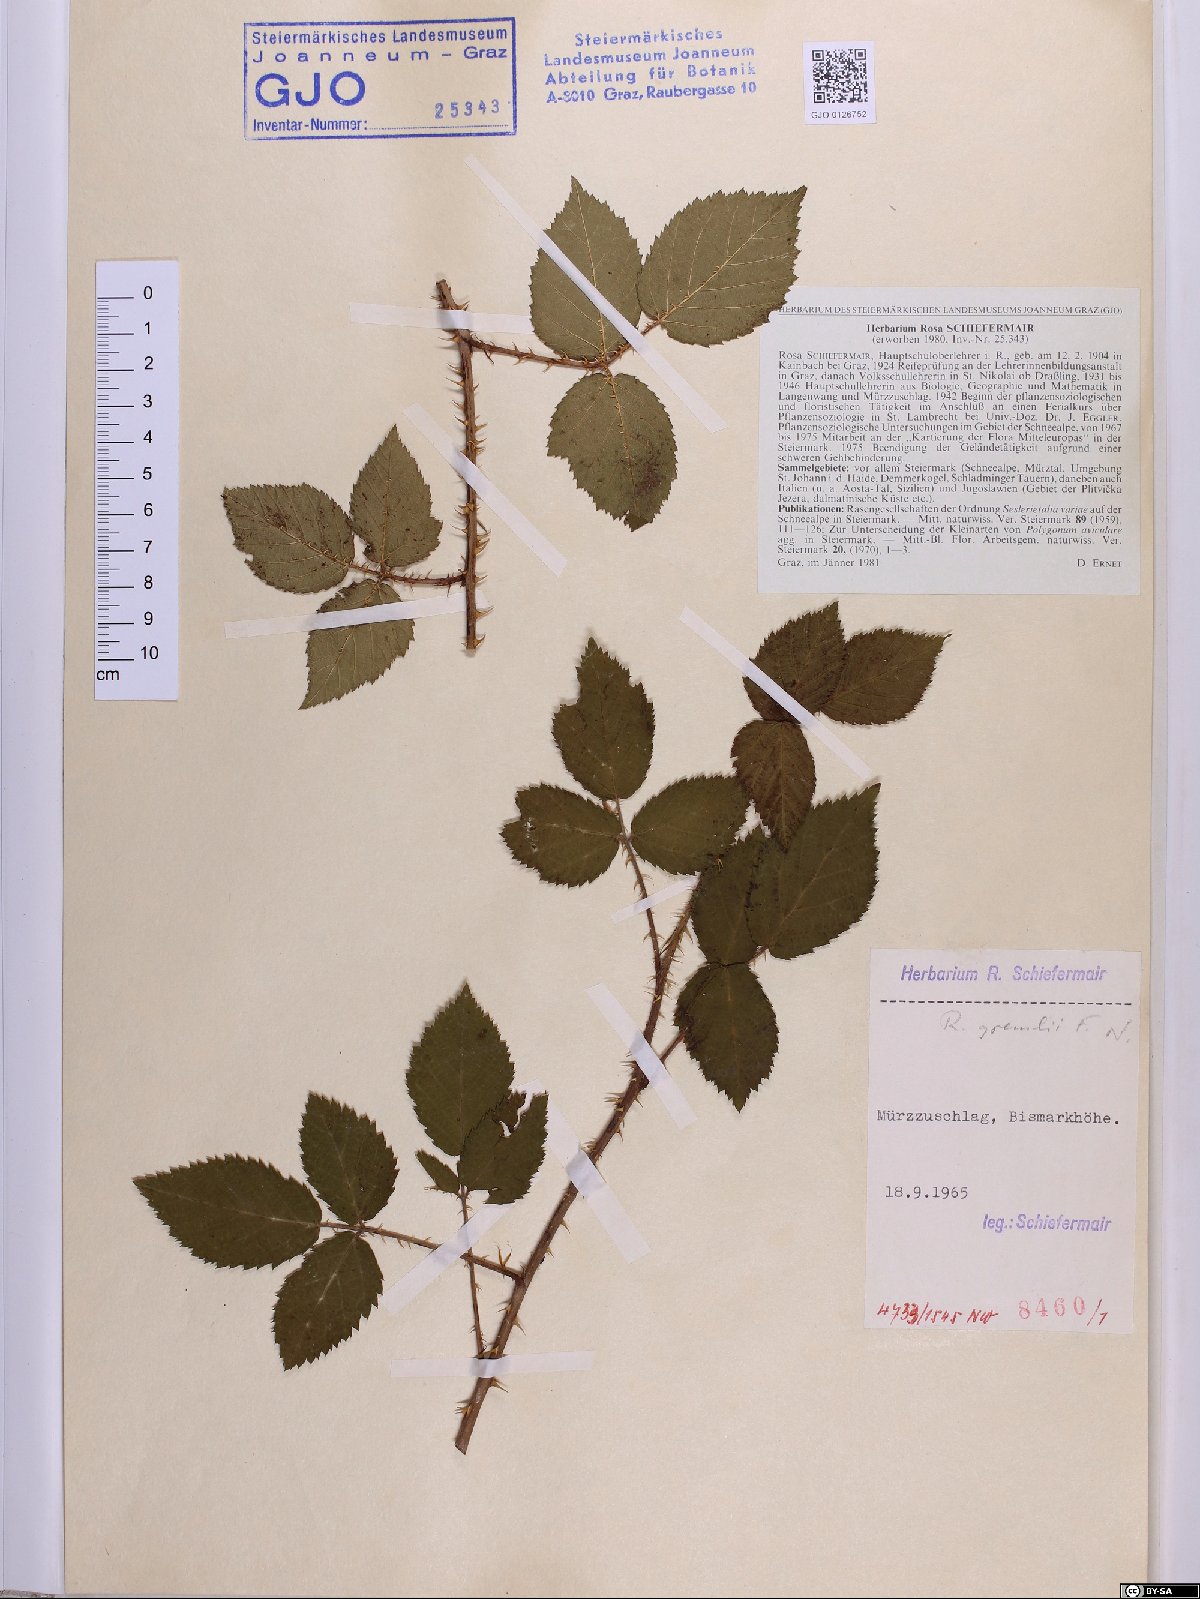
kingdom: Plantae
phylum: Tracheophyta
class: Magnoliopsida
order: Rosales
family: Rosaceae
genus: Rubus
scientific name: Rubus gremlii
